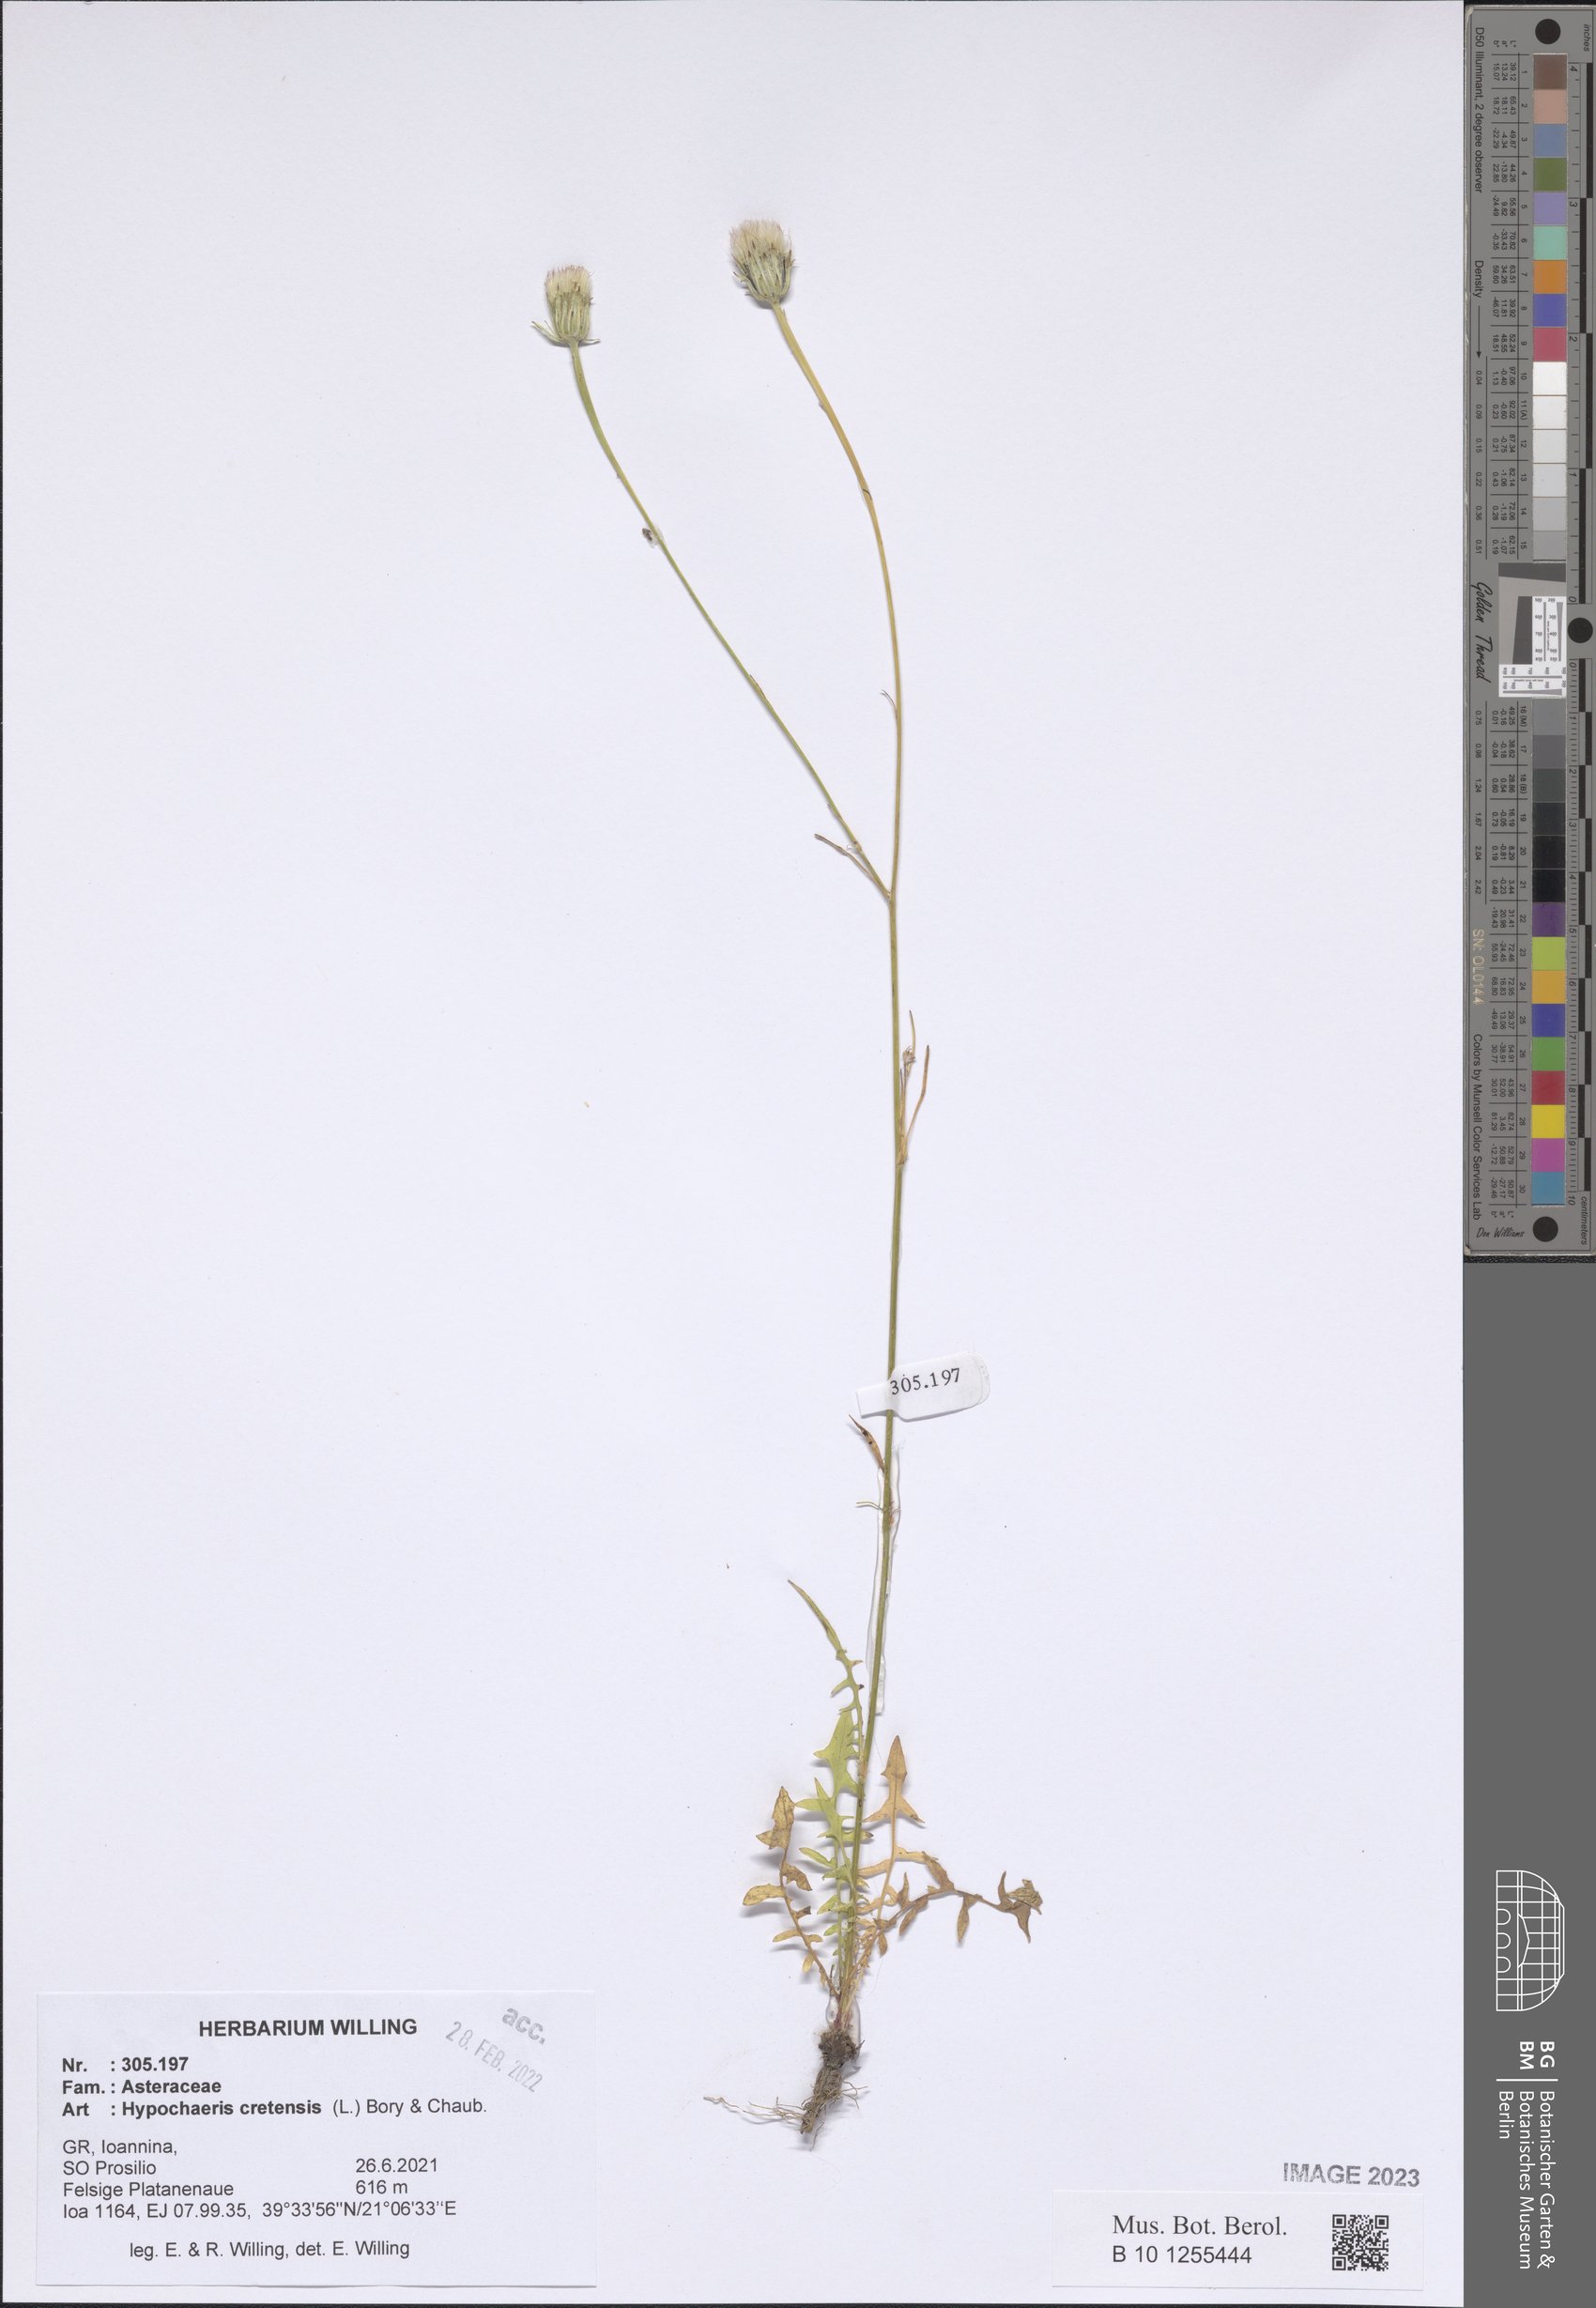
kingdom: Plantae
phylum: Tracheophyta
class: Magnoliopsida
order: Asterales
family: Asteraceae
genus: Hypochaeris
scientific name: Hypochaeris cretensis
